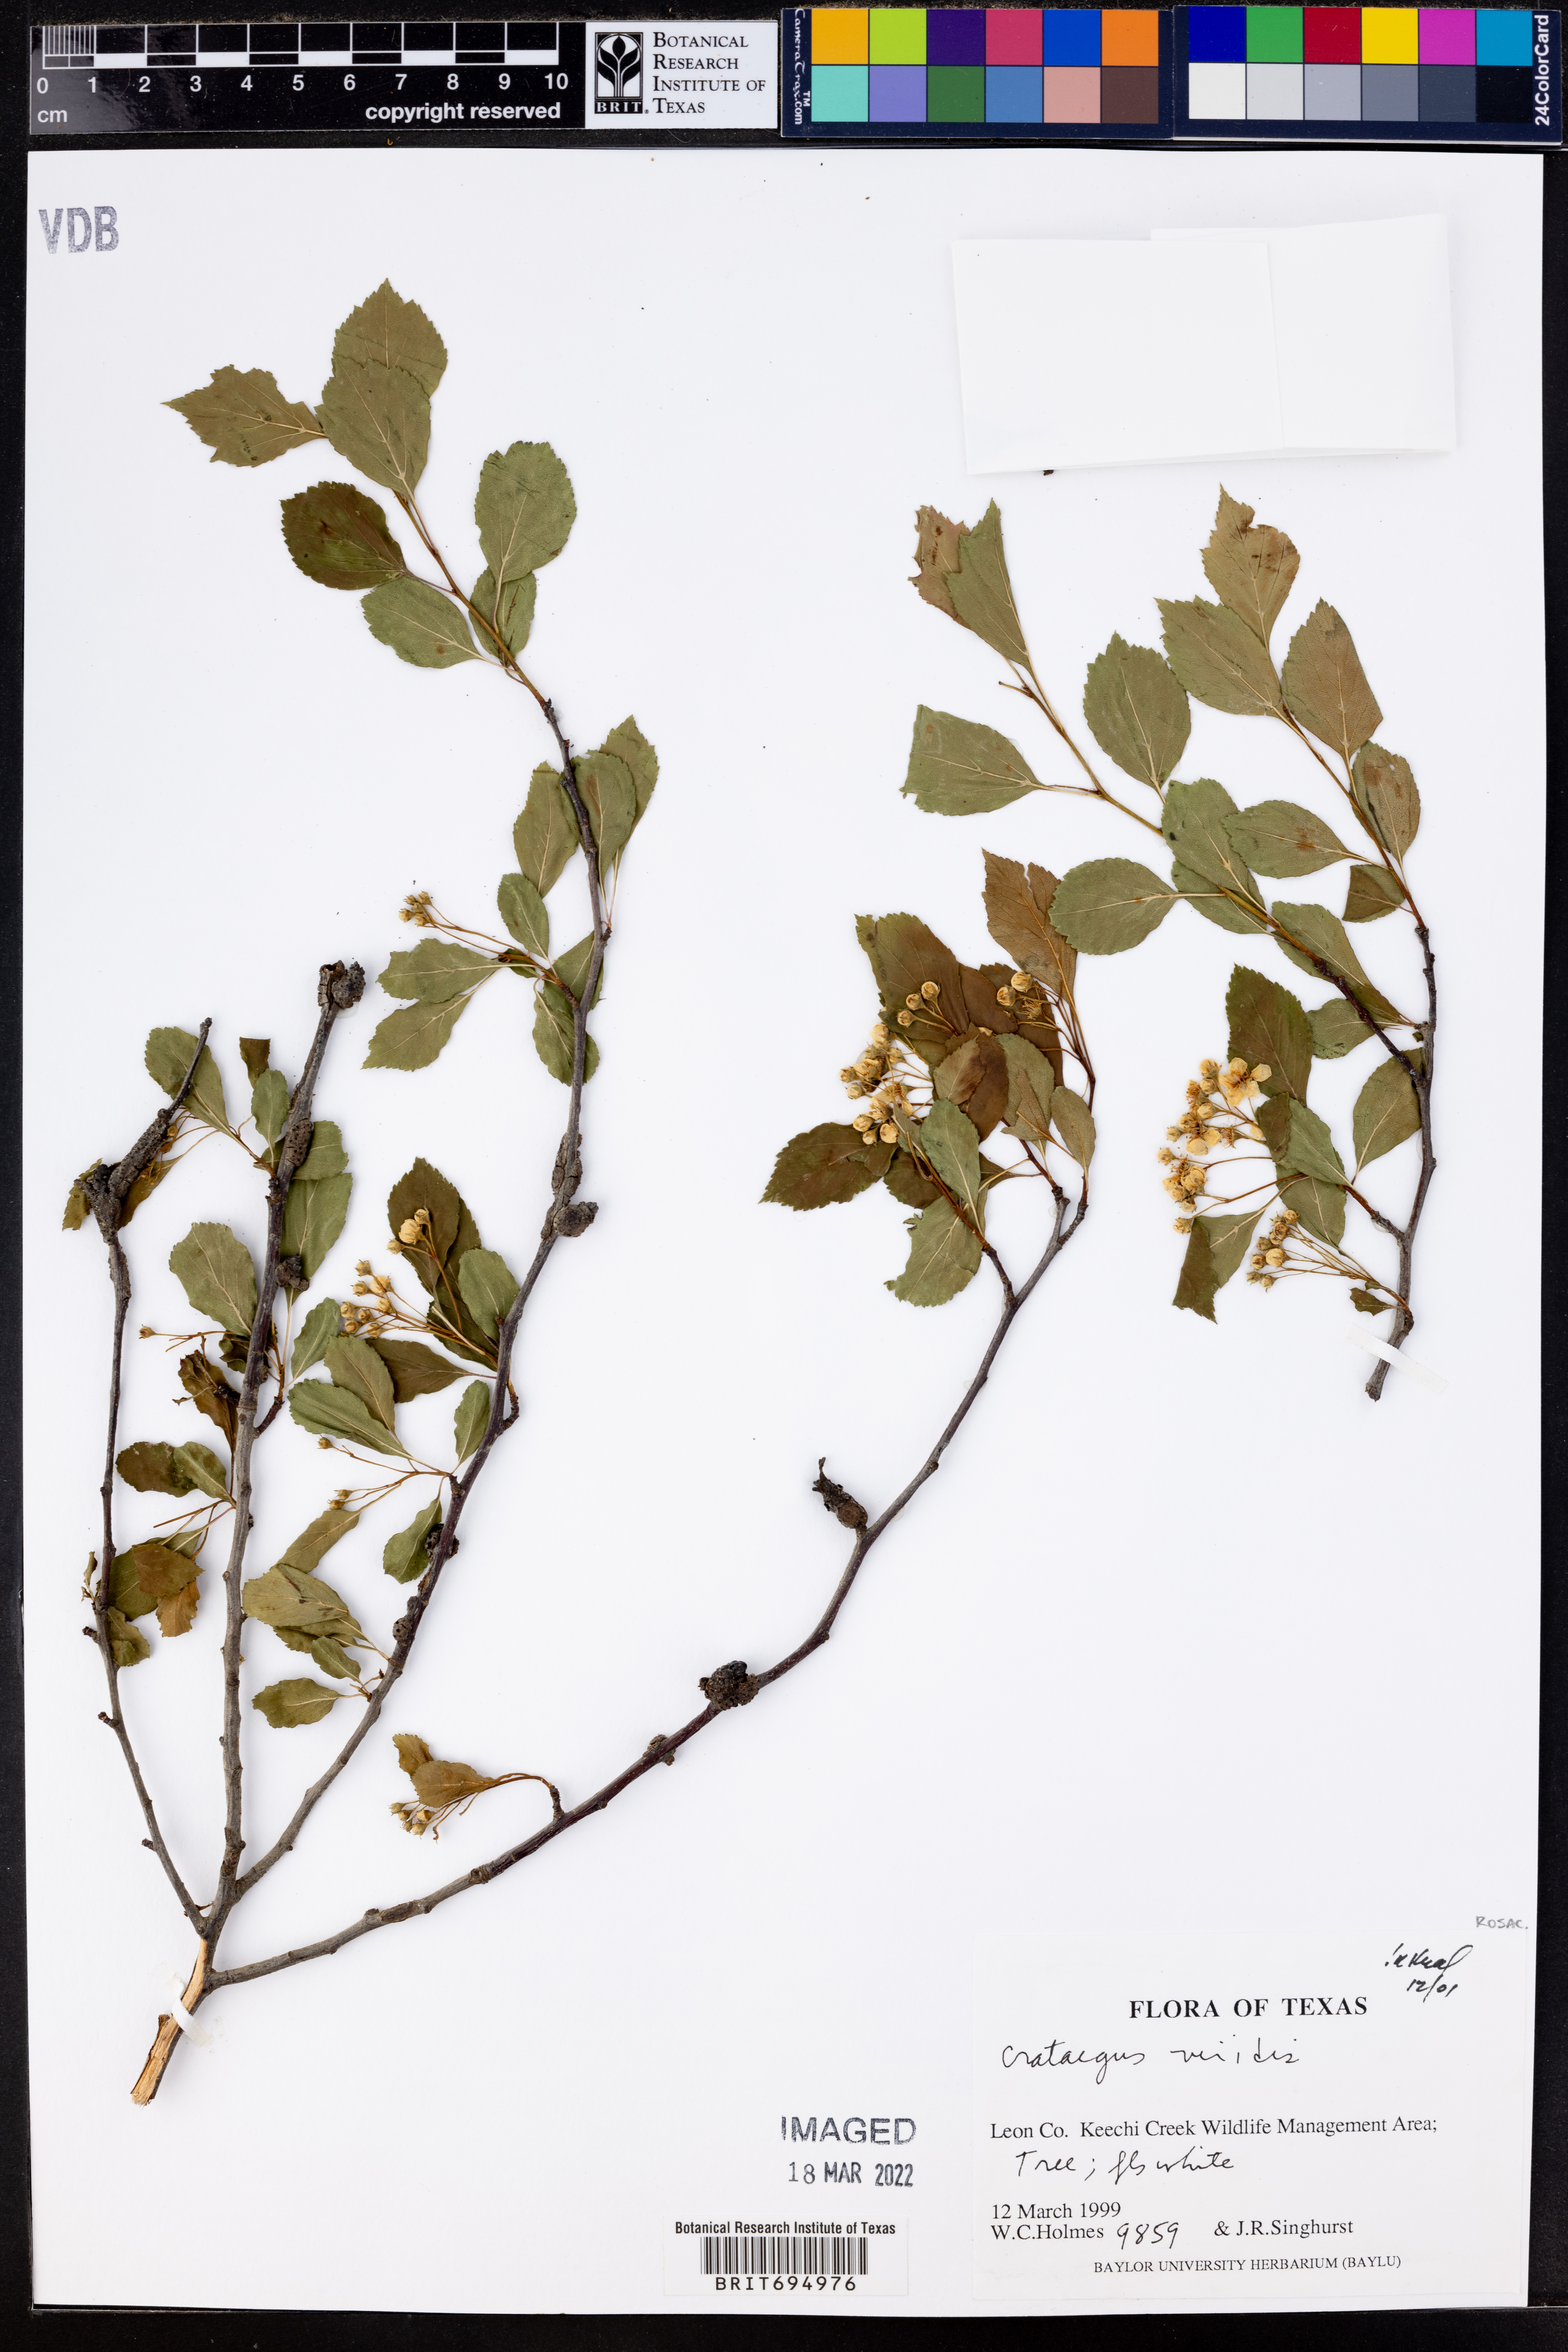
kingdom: Plantae
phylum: Tracheophyta
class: Magnoliopsida
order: Rosales
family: Rosaceae
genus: Crataegus
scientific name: Crataegus viridis
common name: Southernthorn
